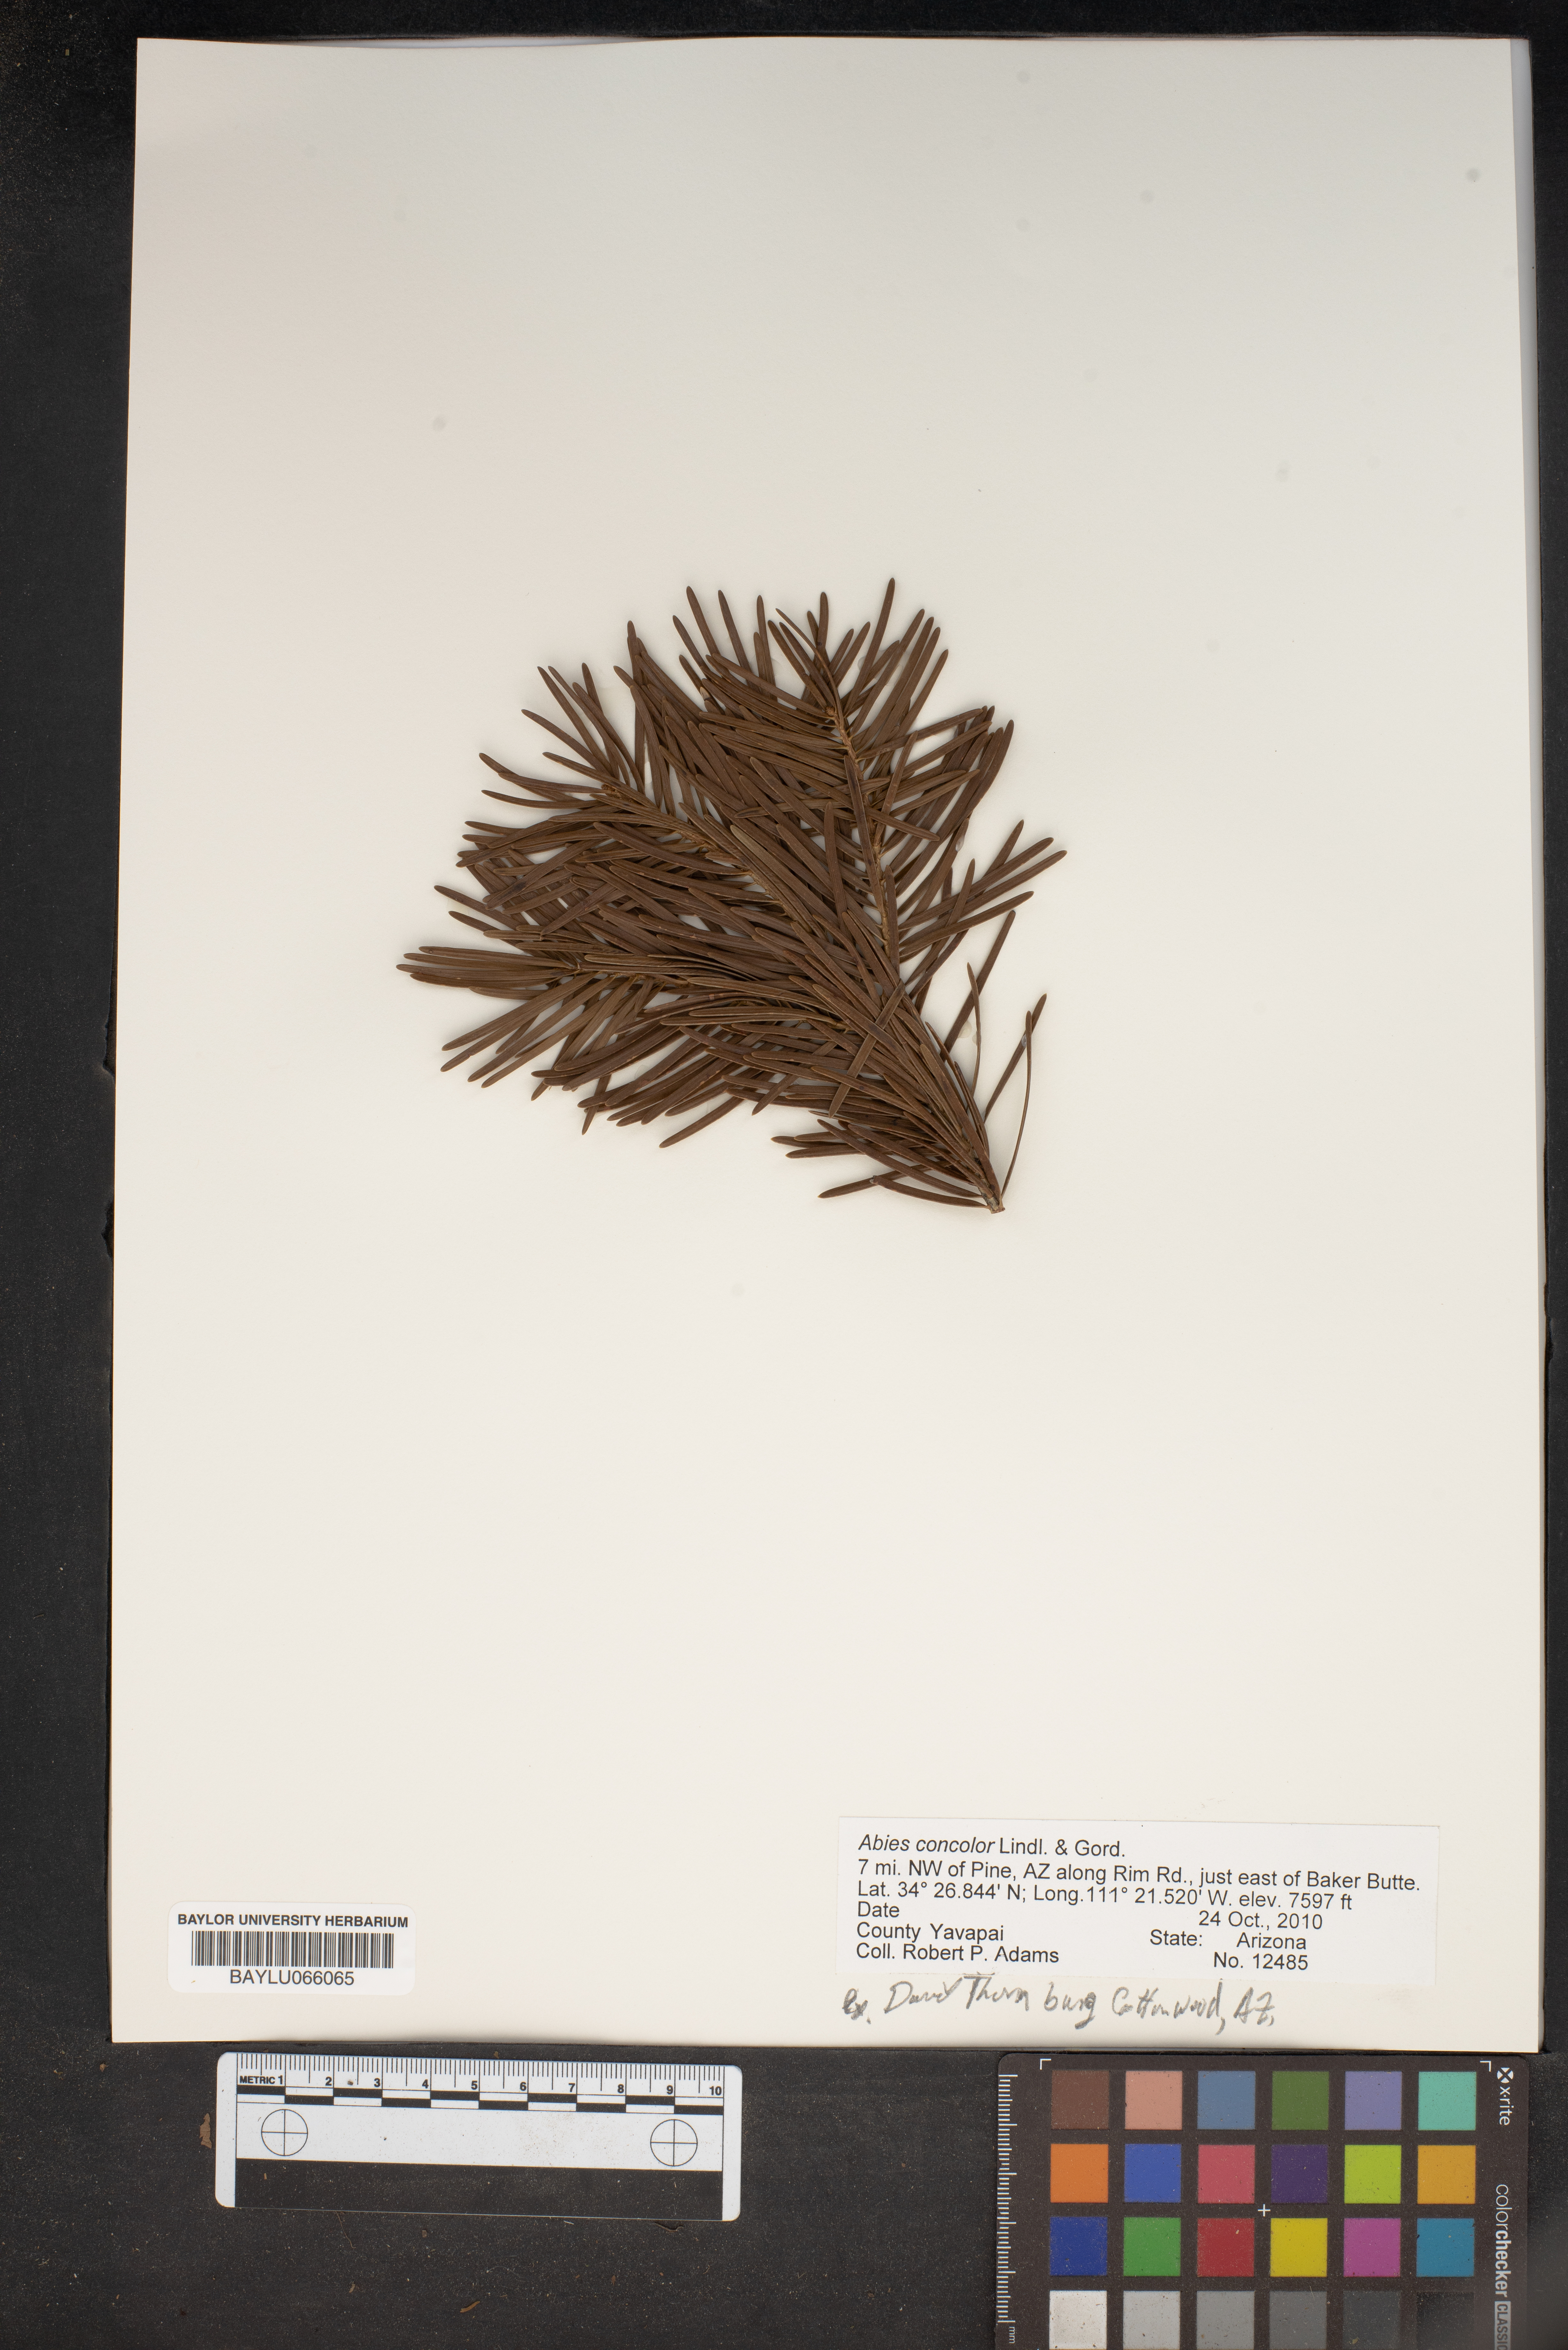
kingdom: Plantae
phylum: Tracheophyta
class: Pinopsida
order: Pinales
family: Pinaceae
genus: Abies
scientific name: Abies concolor
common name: Colorado fir
